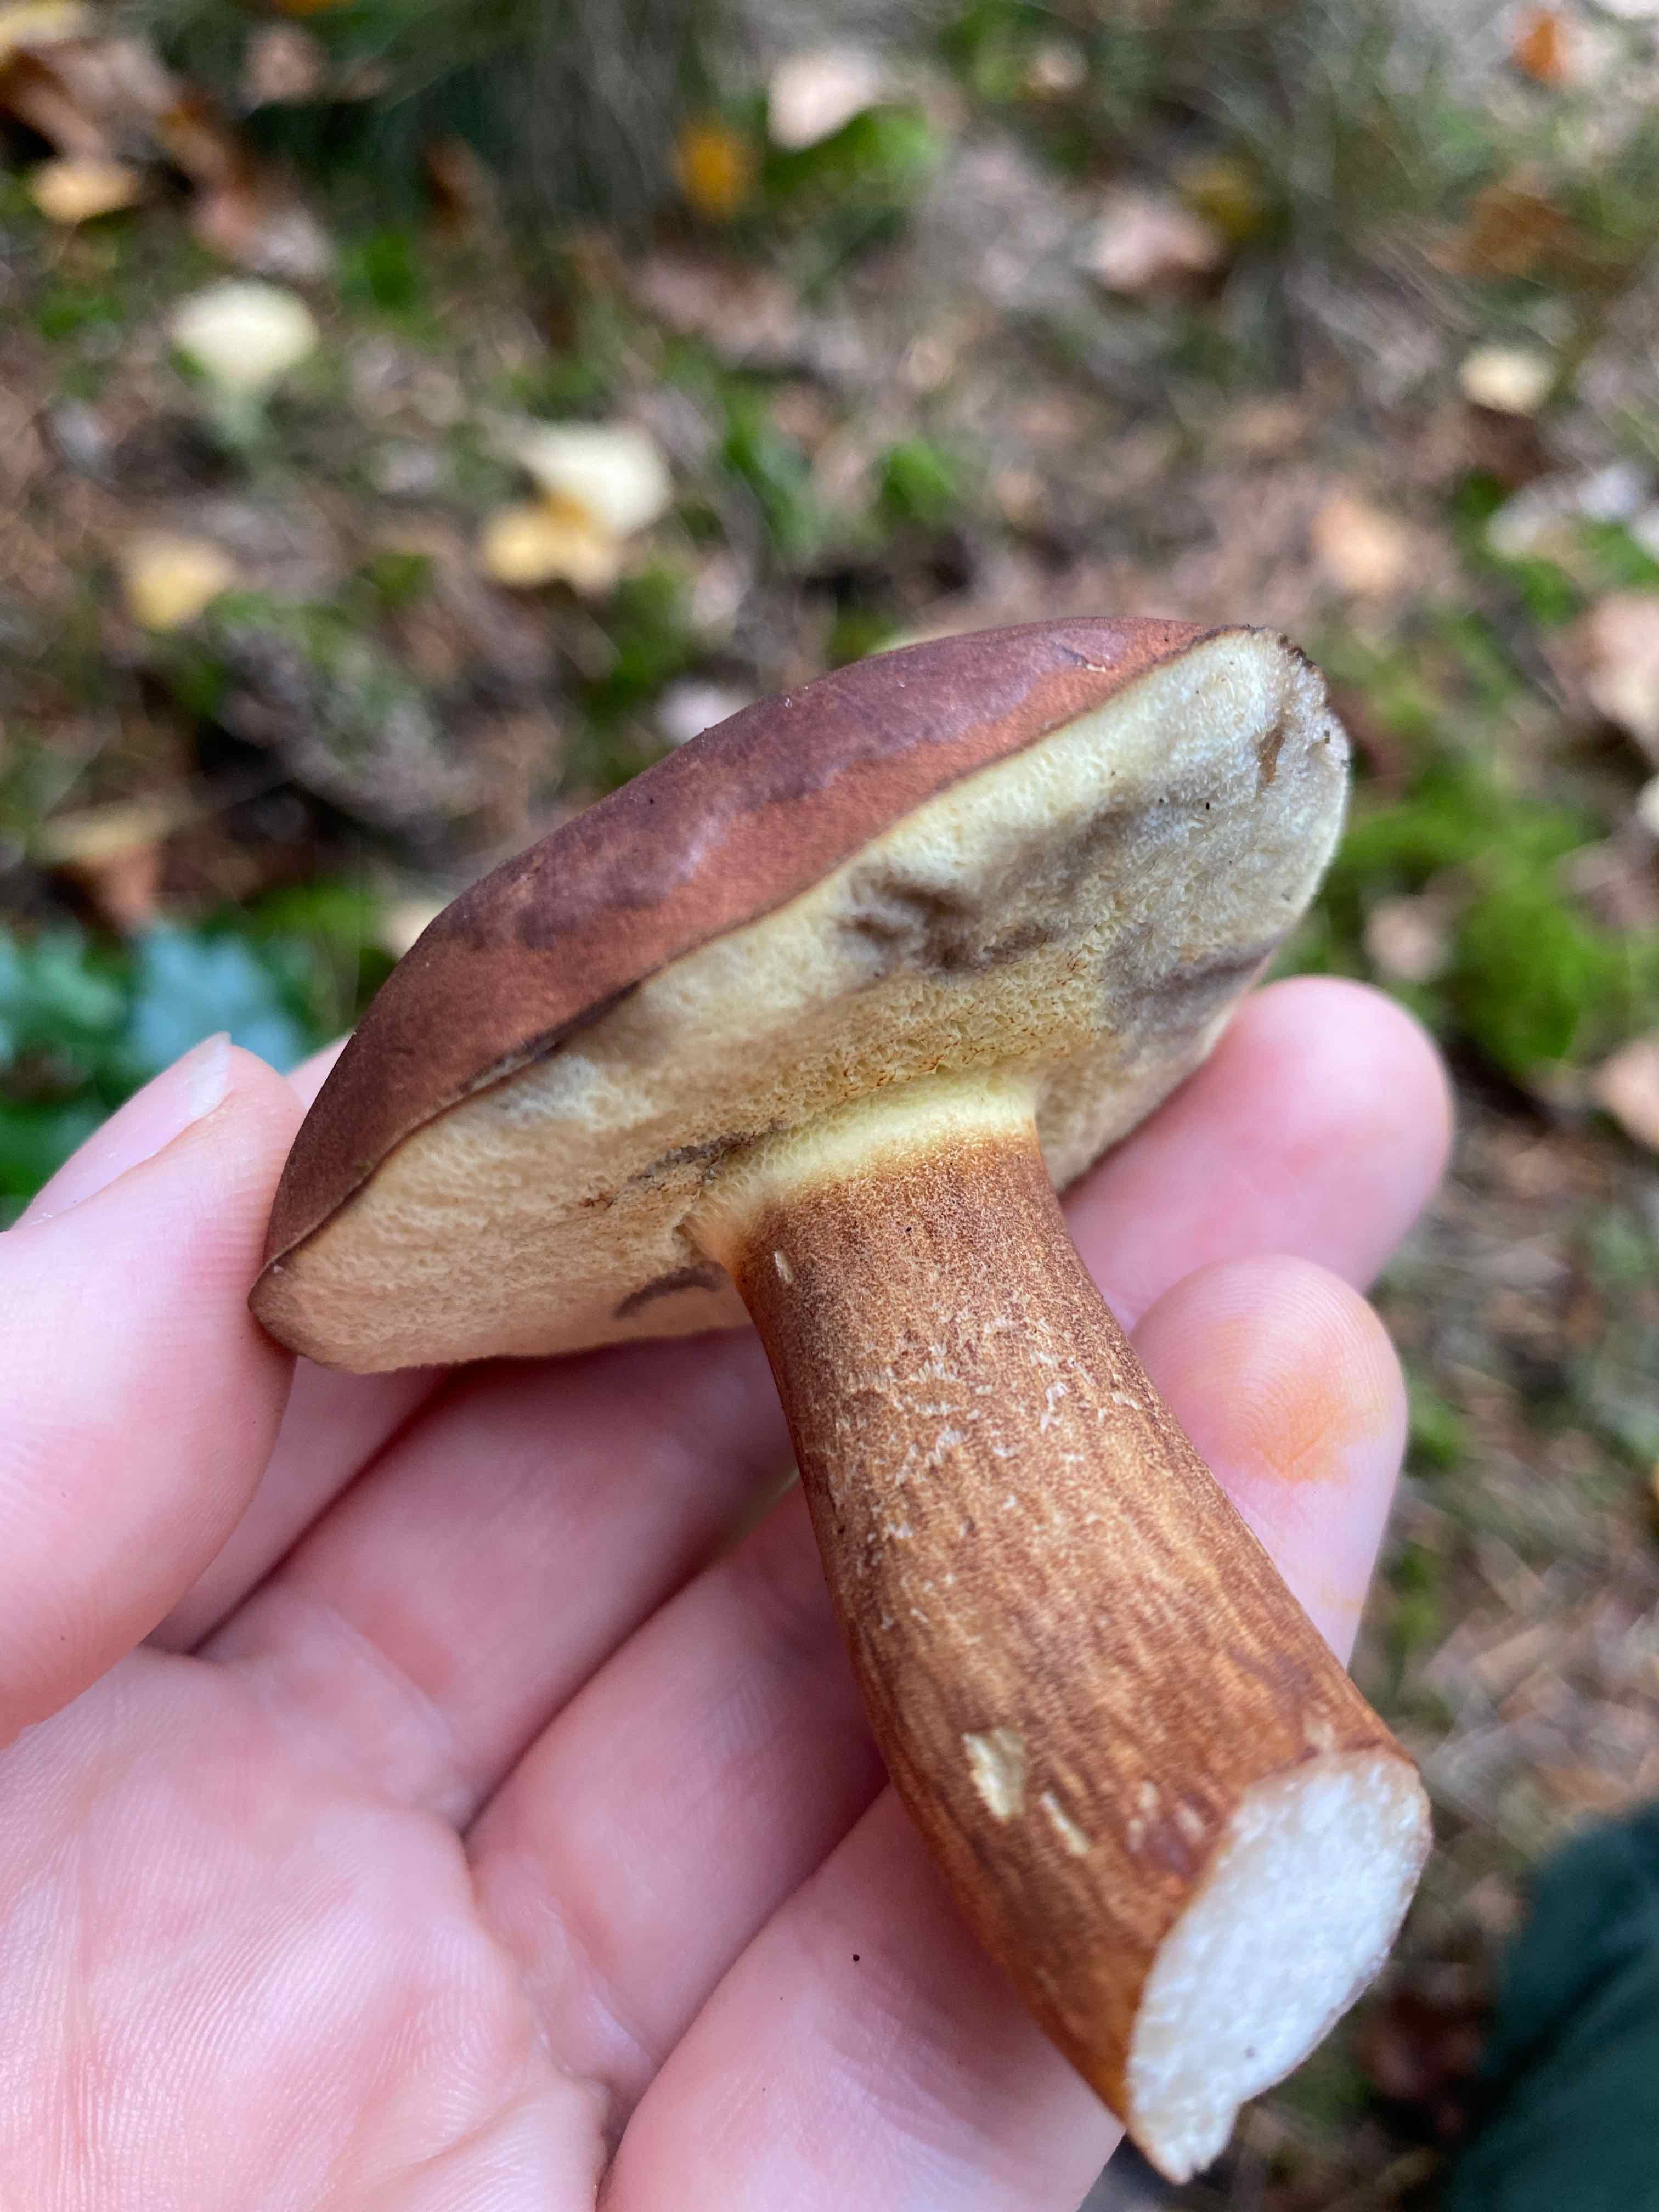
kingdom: Fungi
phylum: Basidiomycota
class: Agaricomycetes
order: Boletales
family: Boletaceae
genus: Imleria
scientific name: Imleria badia
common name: brunstokket rørhat
